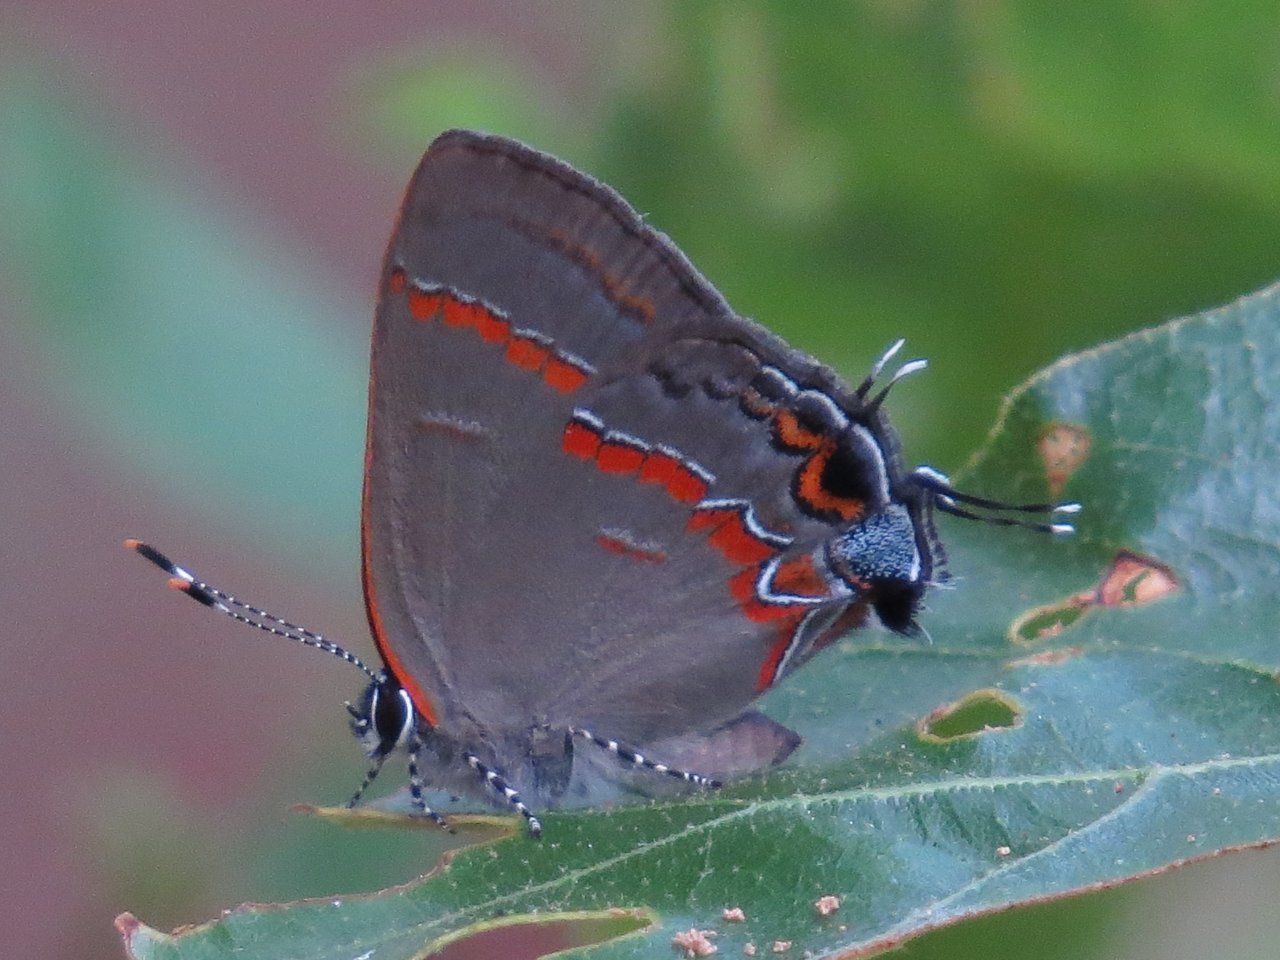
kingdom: Animalia
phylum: Arthropoda
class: Insecta
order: Lepidoptera
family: Lycaenidae
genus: Calycopis
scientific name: Calycopis cecrops
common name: Red-banded Hairstreak
